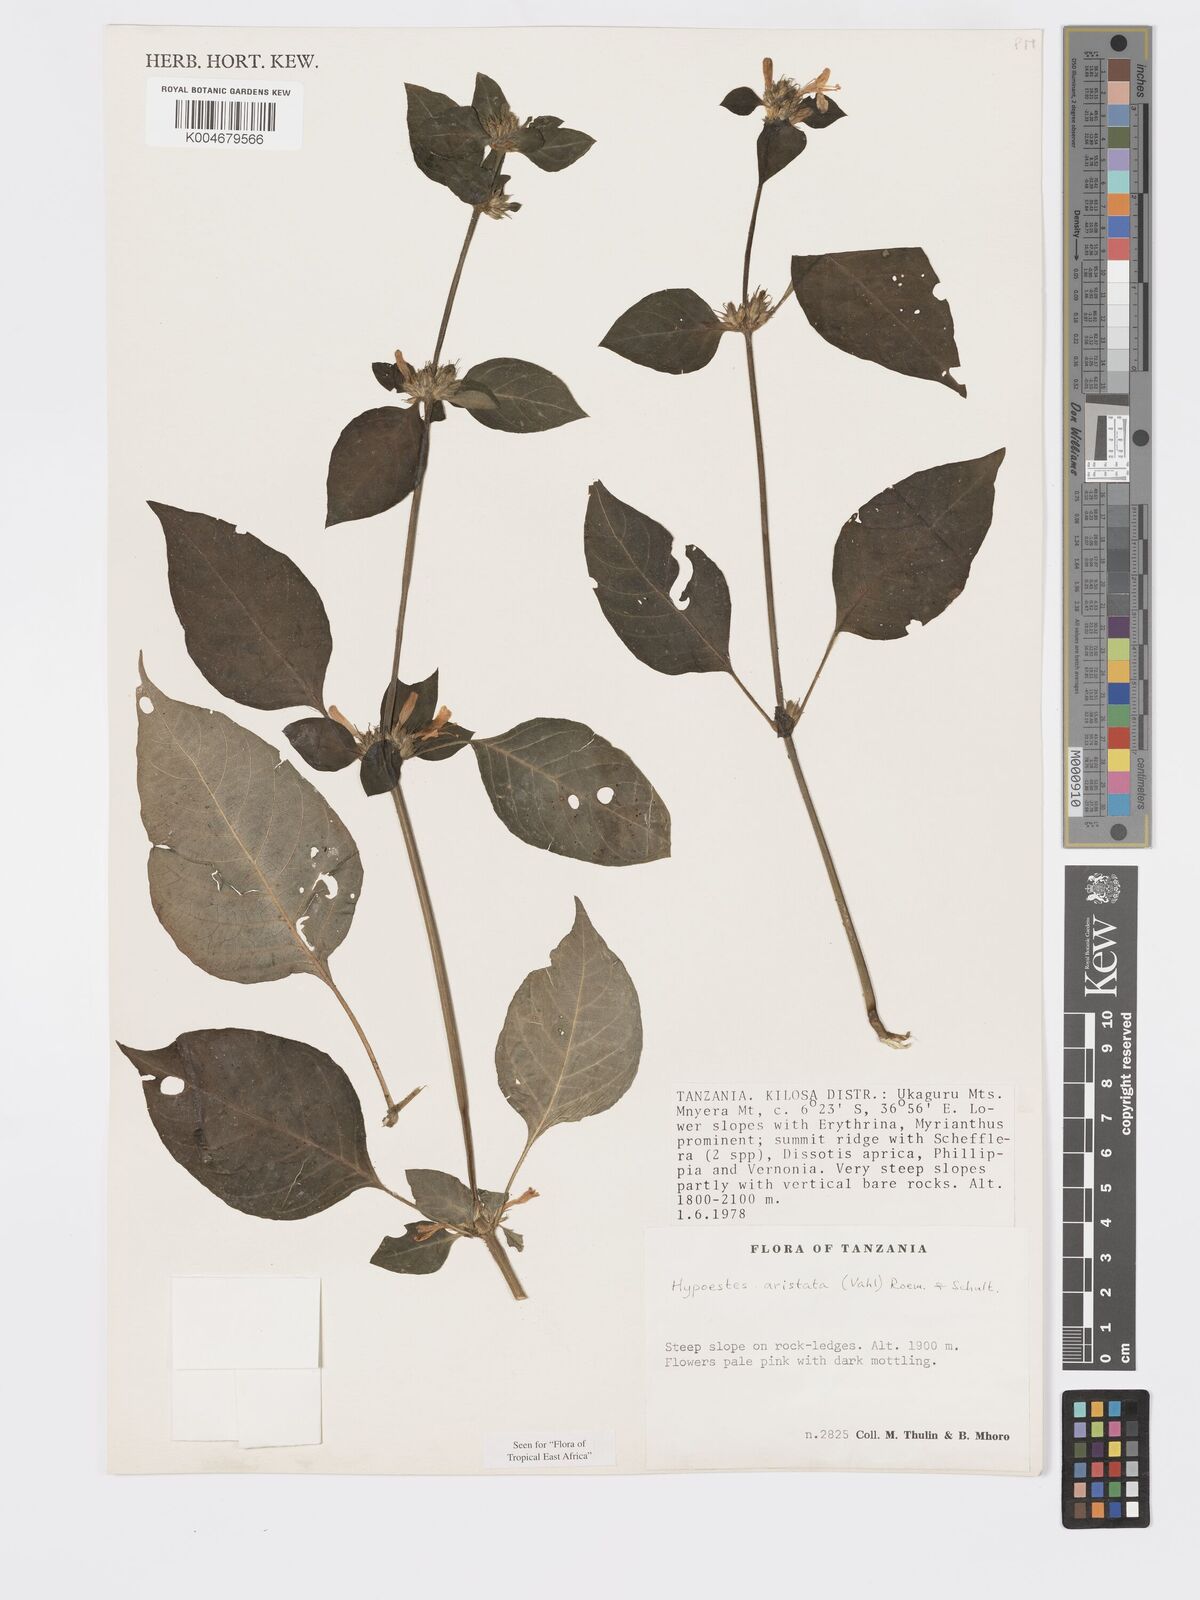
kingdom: Plantae
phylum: Tracheophyta
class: Magnoliopsida
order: Lamiales
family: Acanthaceae
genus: Hypoestes
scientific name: Hypoestes aristata
